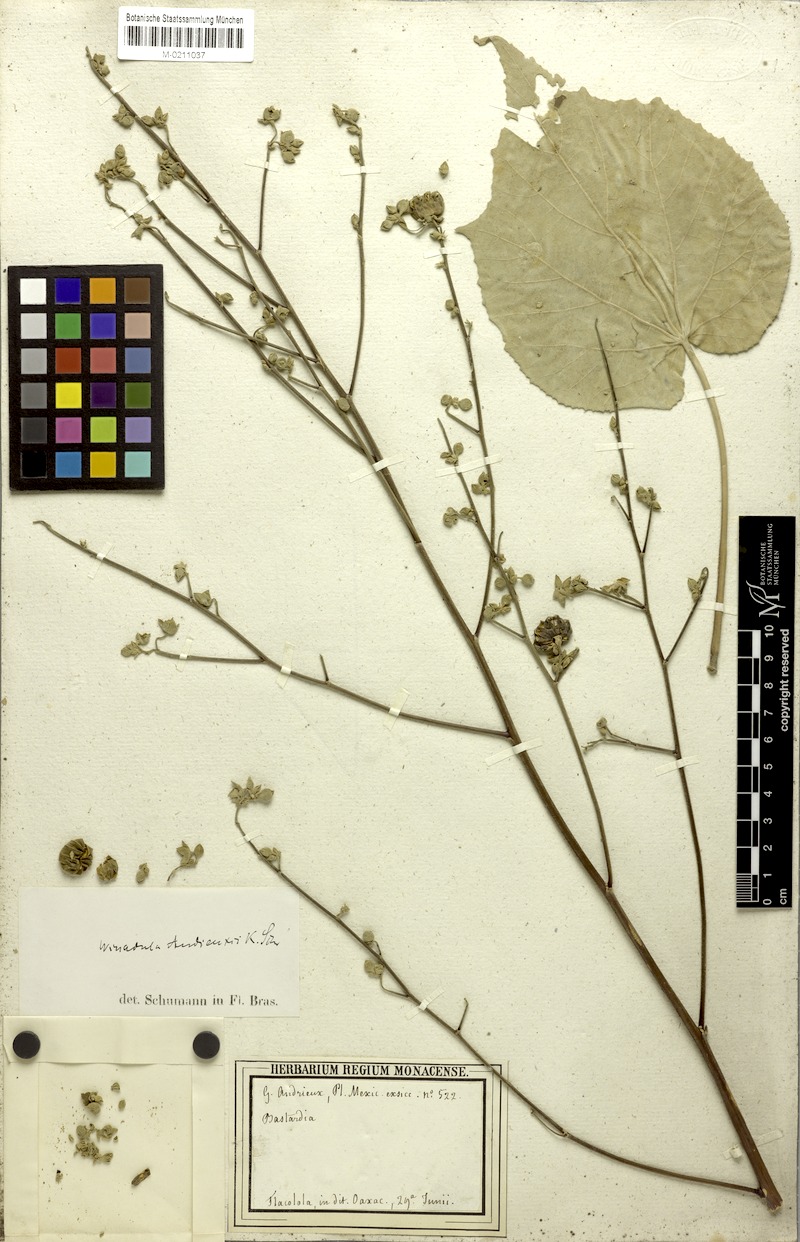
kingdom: Plantae
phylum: Tracheophyta
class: Magnoliopsida
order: Malvales
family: Malvaceae
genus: Abutilon
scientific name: Abutilon andrieuxii
